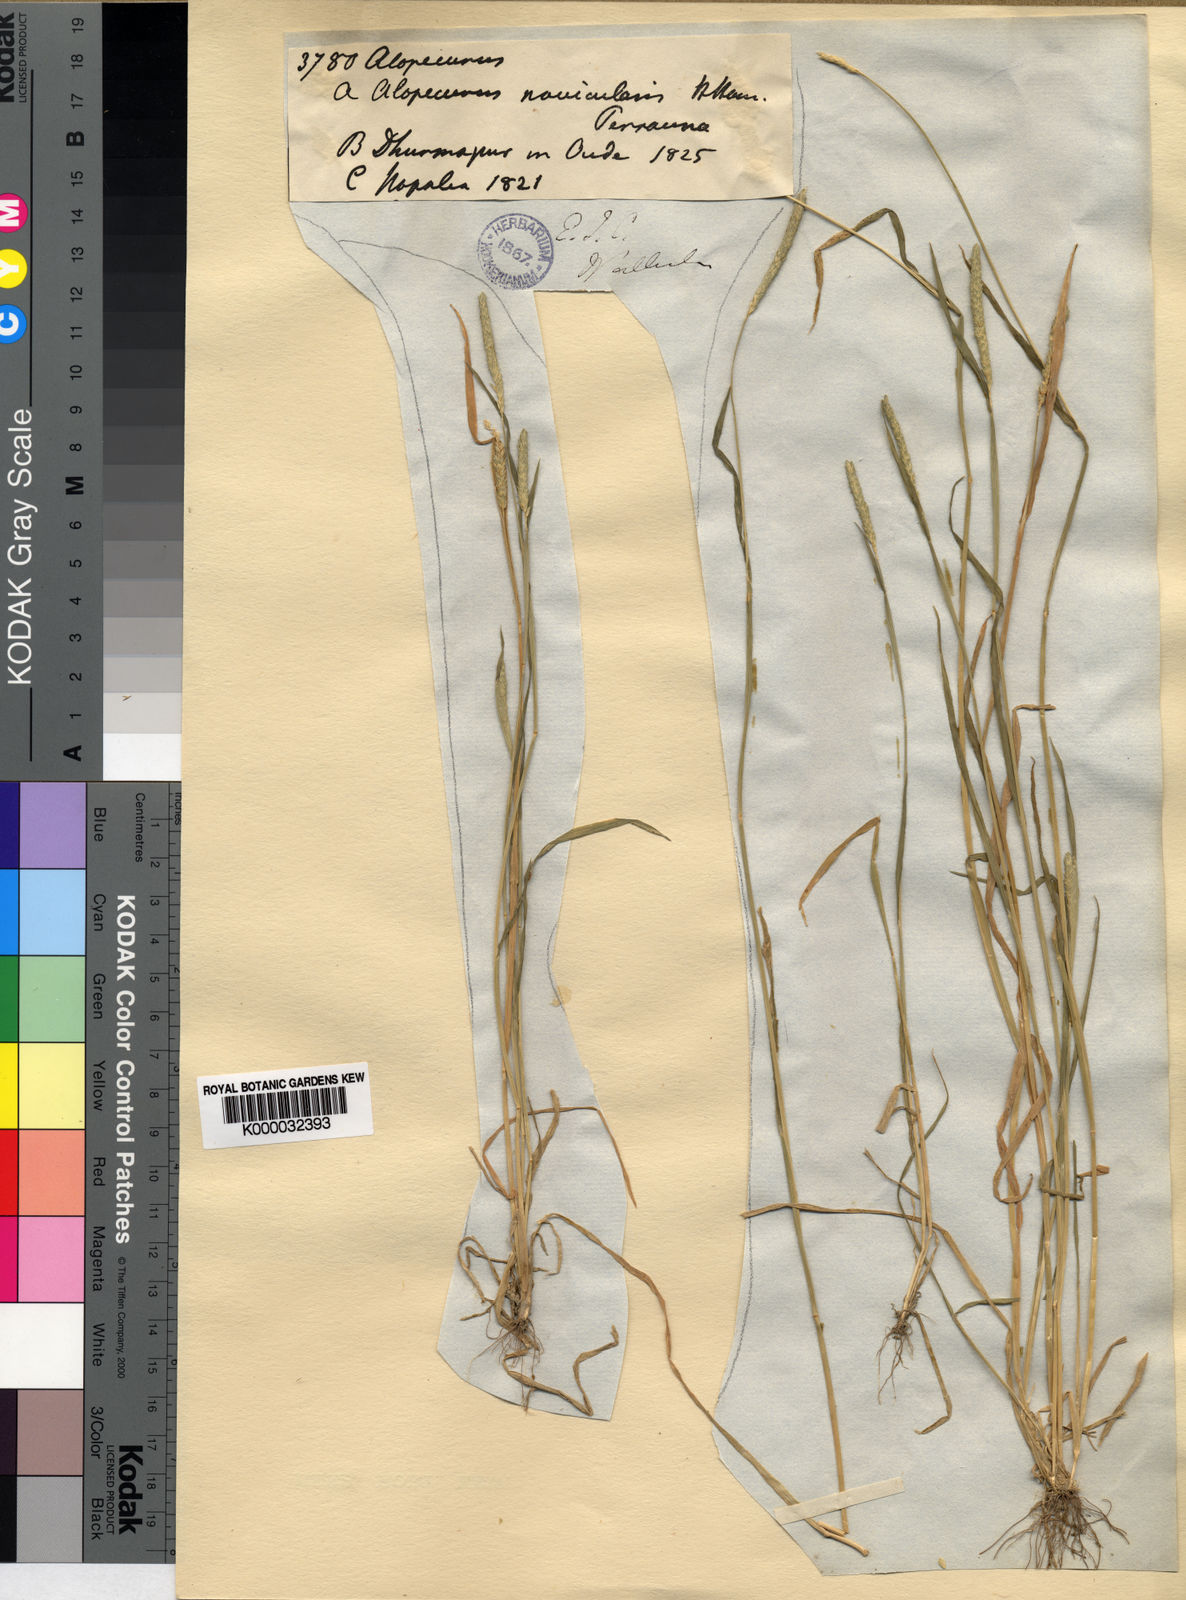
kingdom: Plantae
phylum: Tracheophyta
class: Liliopsida
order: Poales
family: Poaceae
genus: Alopecurus
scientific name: Alopecurus nepalensis
